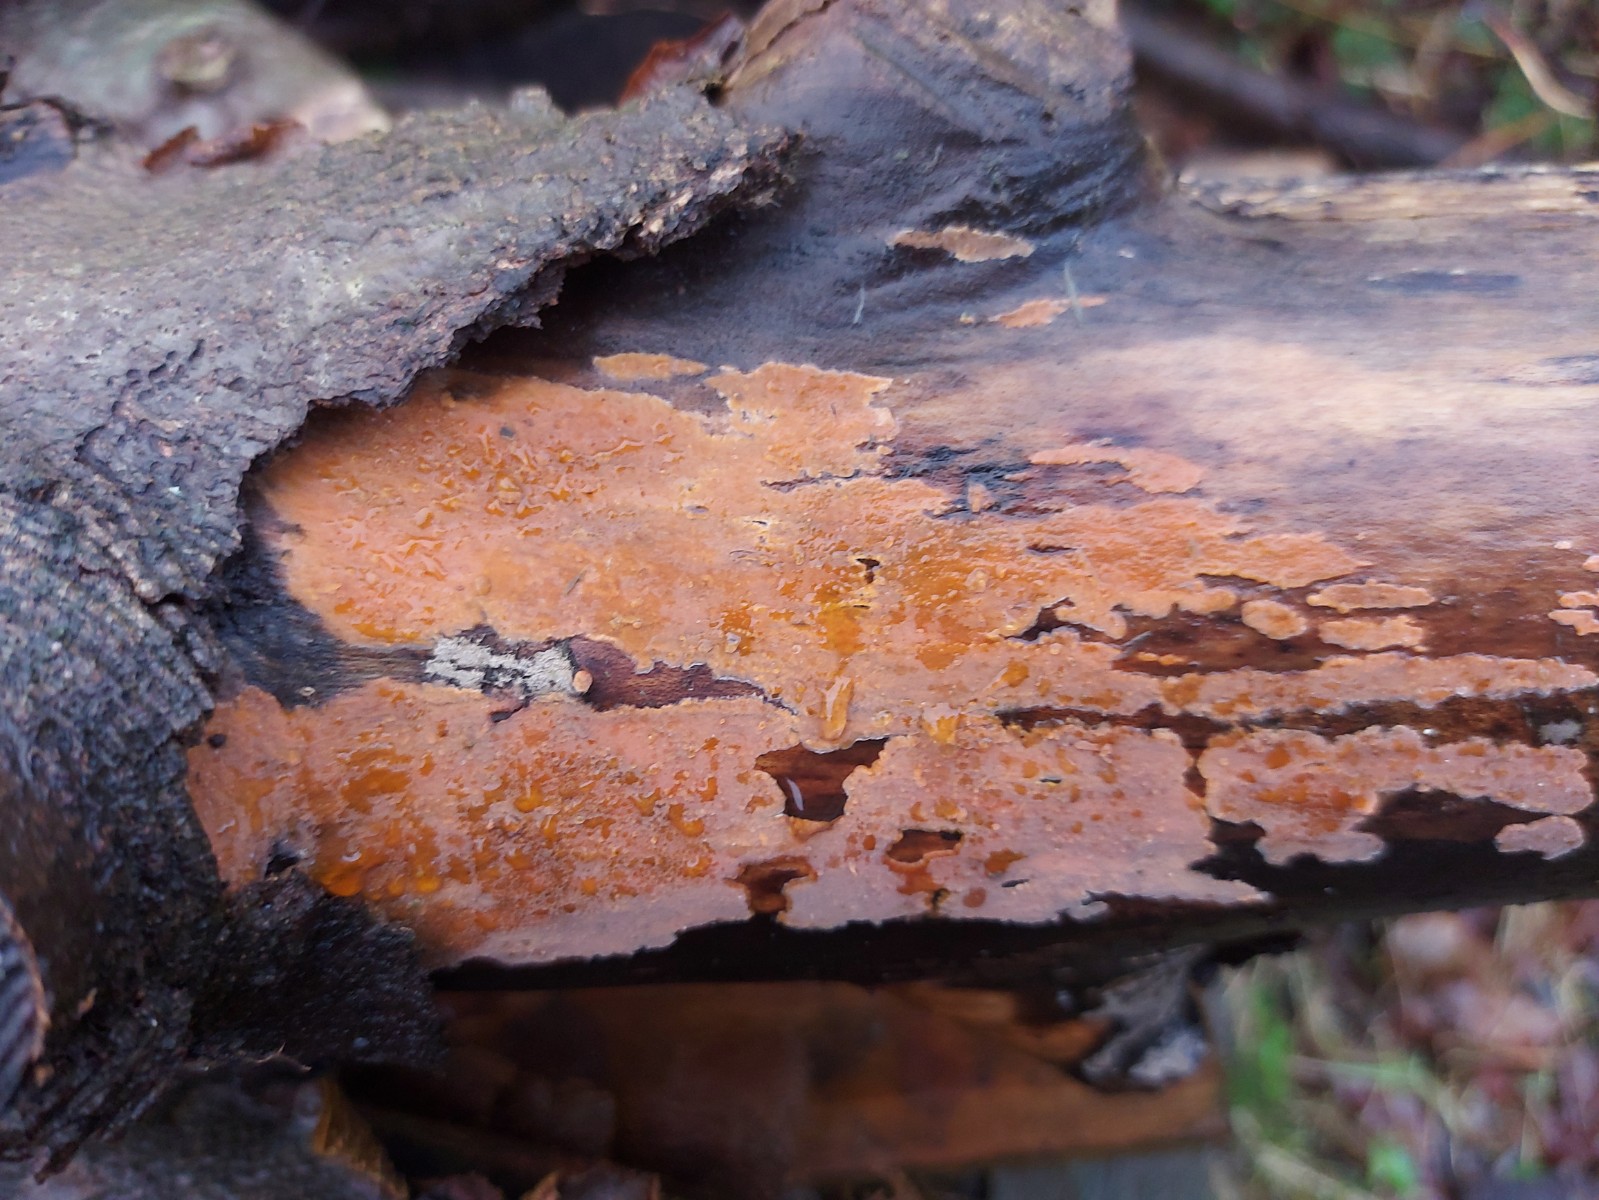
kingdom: Fungi
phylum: Basidiomycota
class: Agaricomycetes
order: Russulales
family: Peniophoraceae
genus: Peniophora
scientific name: Peniophora incarnata
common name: laksefarvet voksskind
